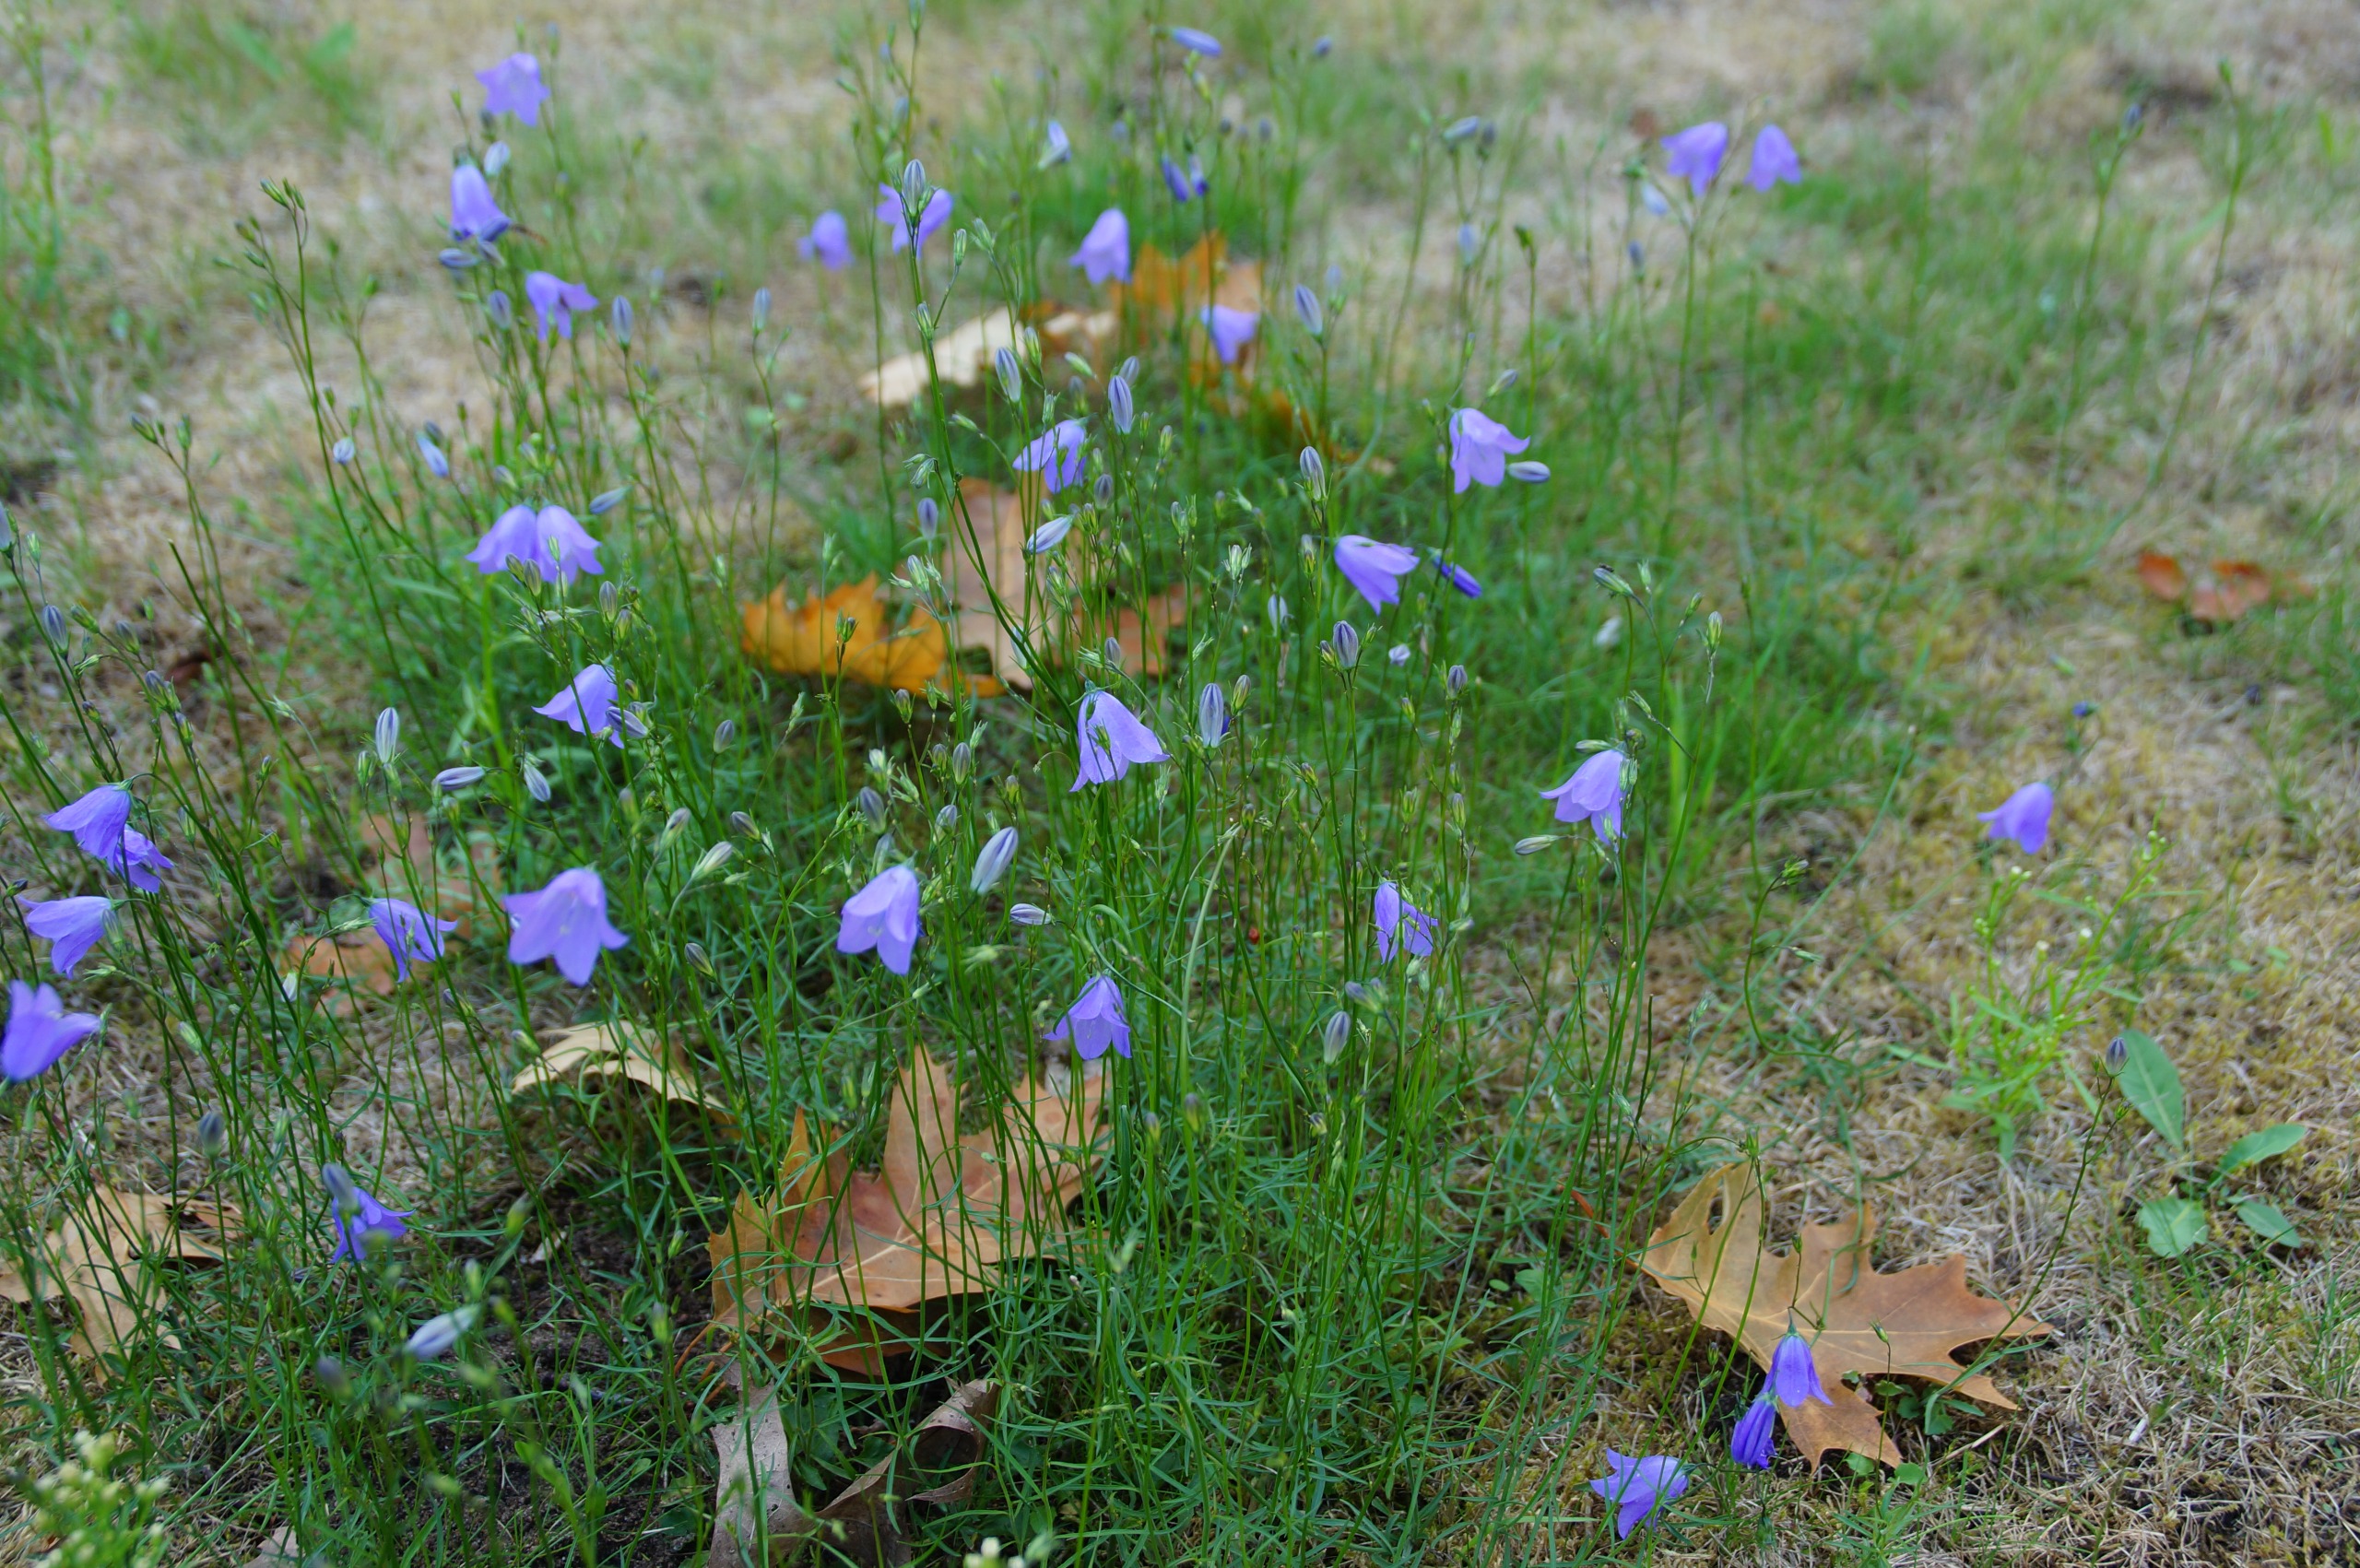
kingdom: Plantae
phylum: Tracheophyta
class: Magnoliopsida
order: Asterales
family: Campanulaceae
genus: Campanula
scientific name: Campanula rotundifolia
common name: Liden klokke
